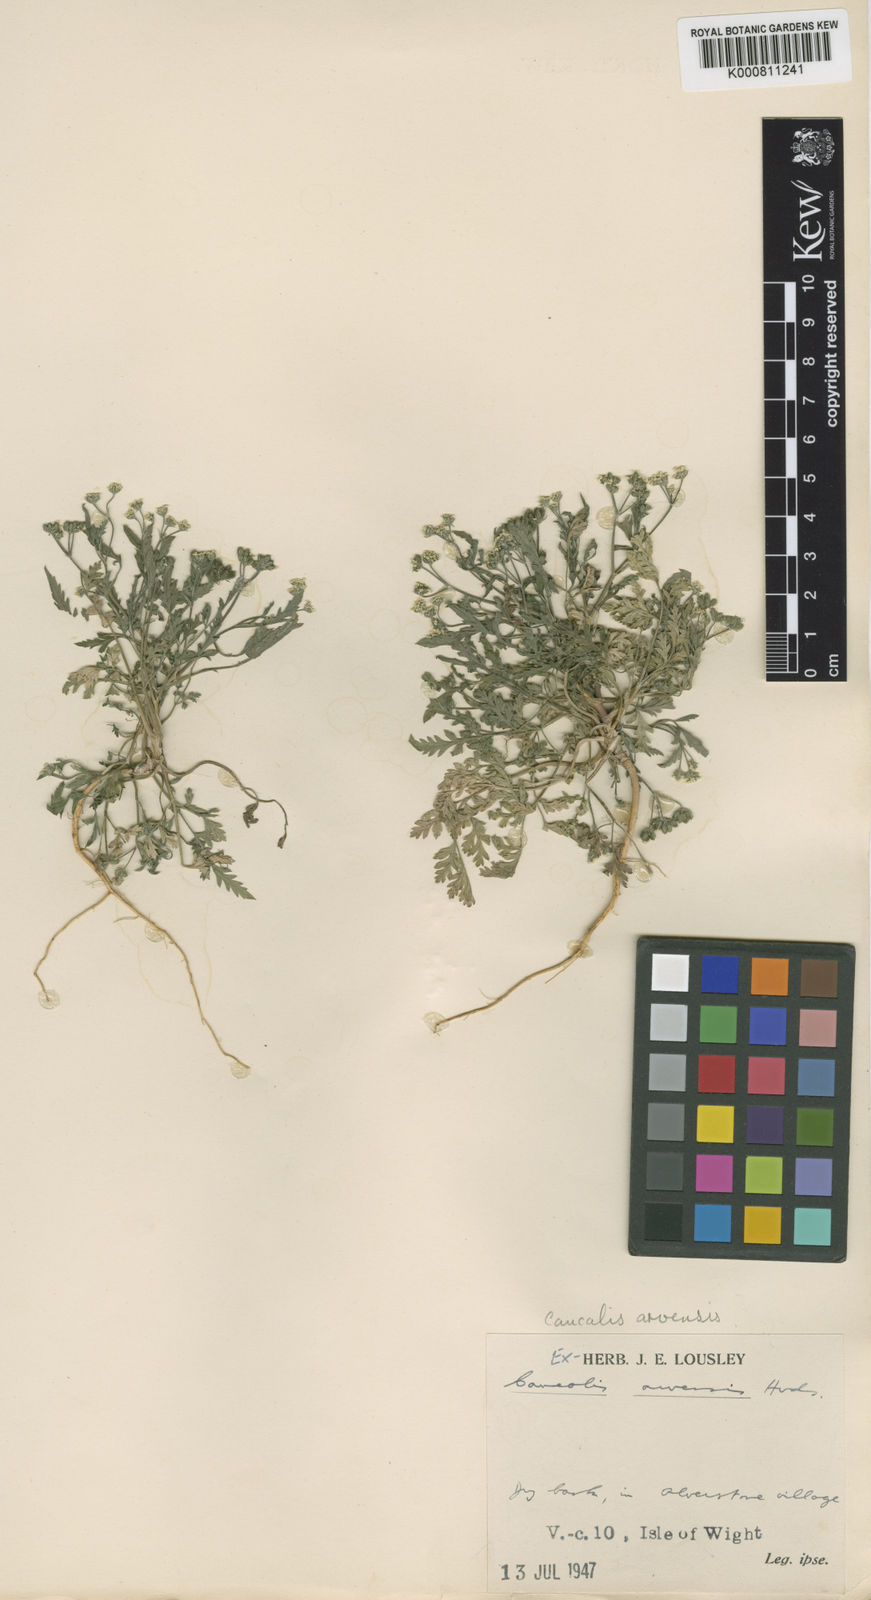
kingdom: Plantae
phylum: Tracheophyta
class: Magnoliopsida
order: Apiales
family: Apiaceae
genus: Torilis
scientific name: Torilis arvensis
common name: Spreading hedge-parsley
